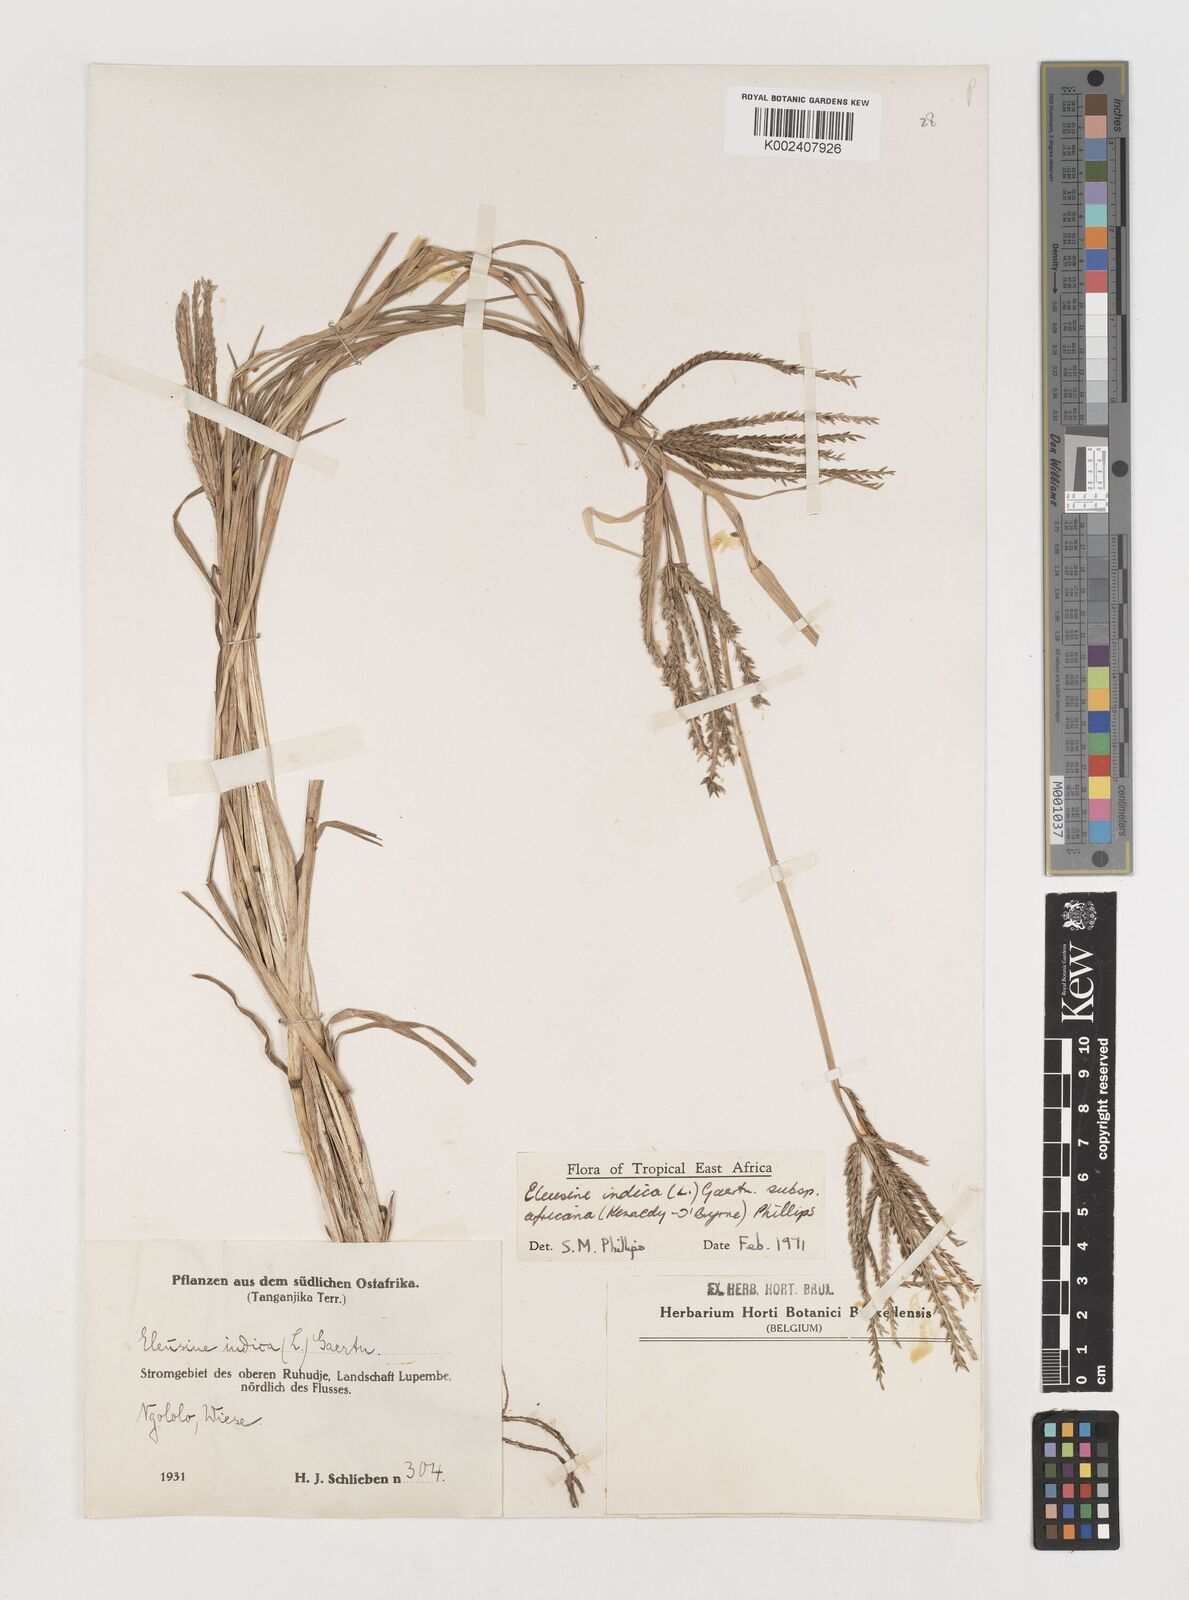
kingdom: Plantae
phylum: Tracheophyta
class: Liliopsida
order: Poales
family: Poaceae
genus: Eleusine
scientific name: Eleusine africana
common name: Wild african finger millet
